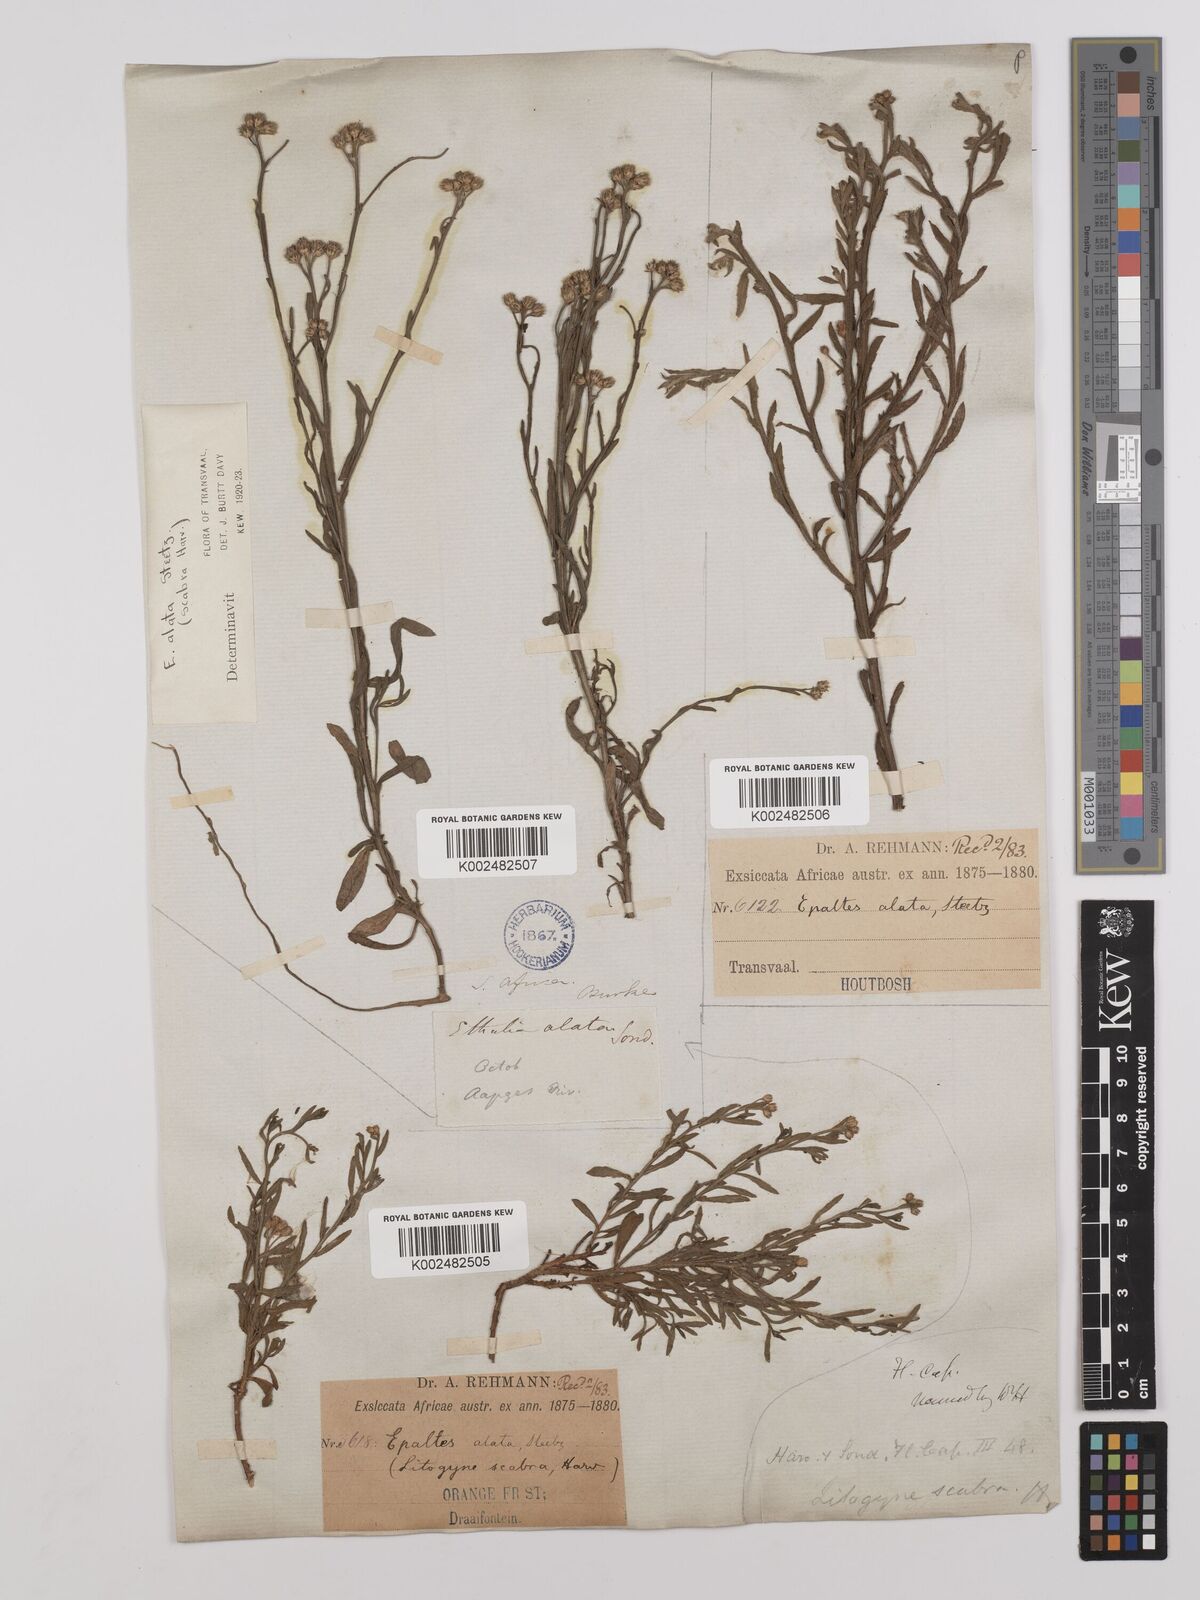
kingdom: Plantae
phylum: Tracheophyta
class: Magnoliopsida
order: Asterales
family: Asteraceae
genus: Litogyne
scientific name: Litogyne gariepina
